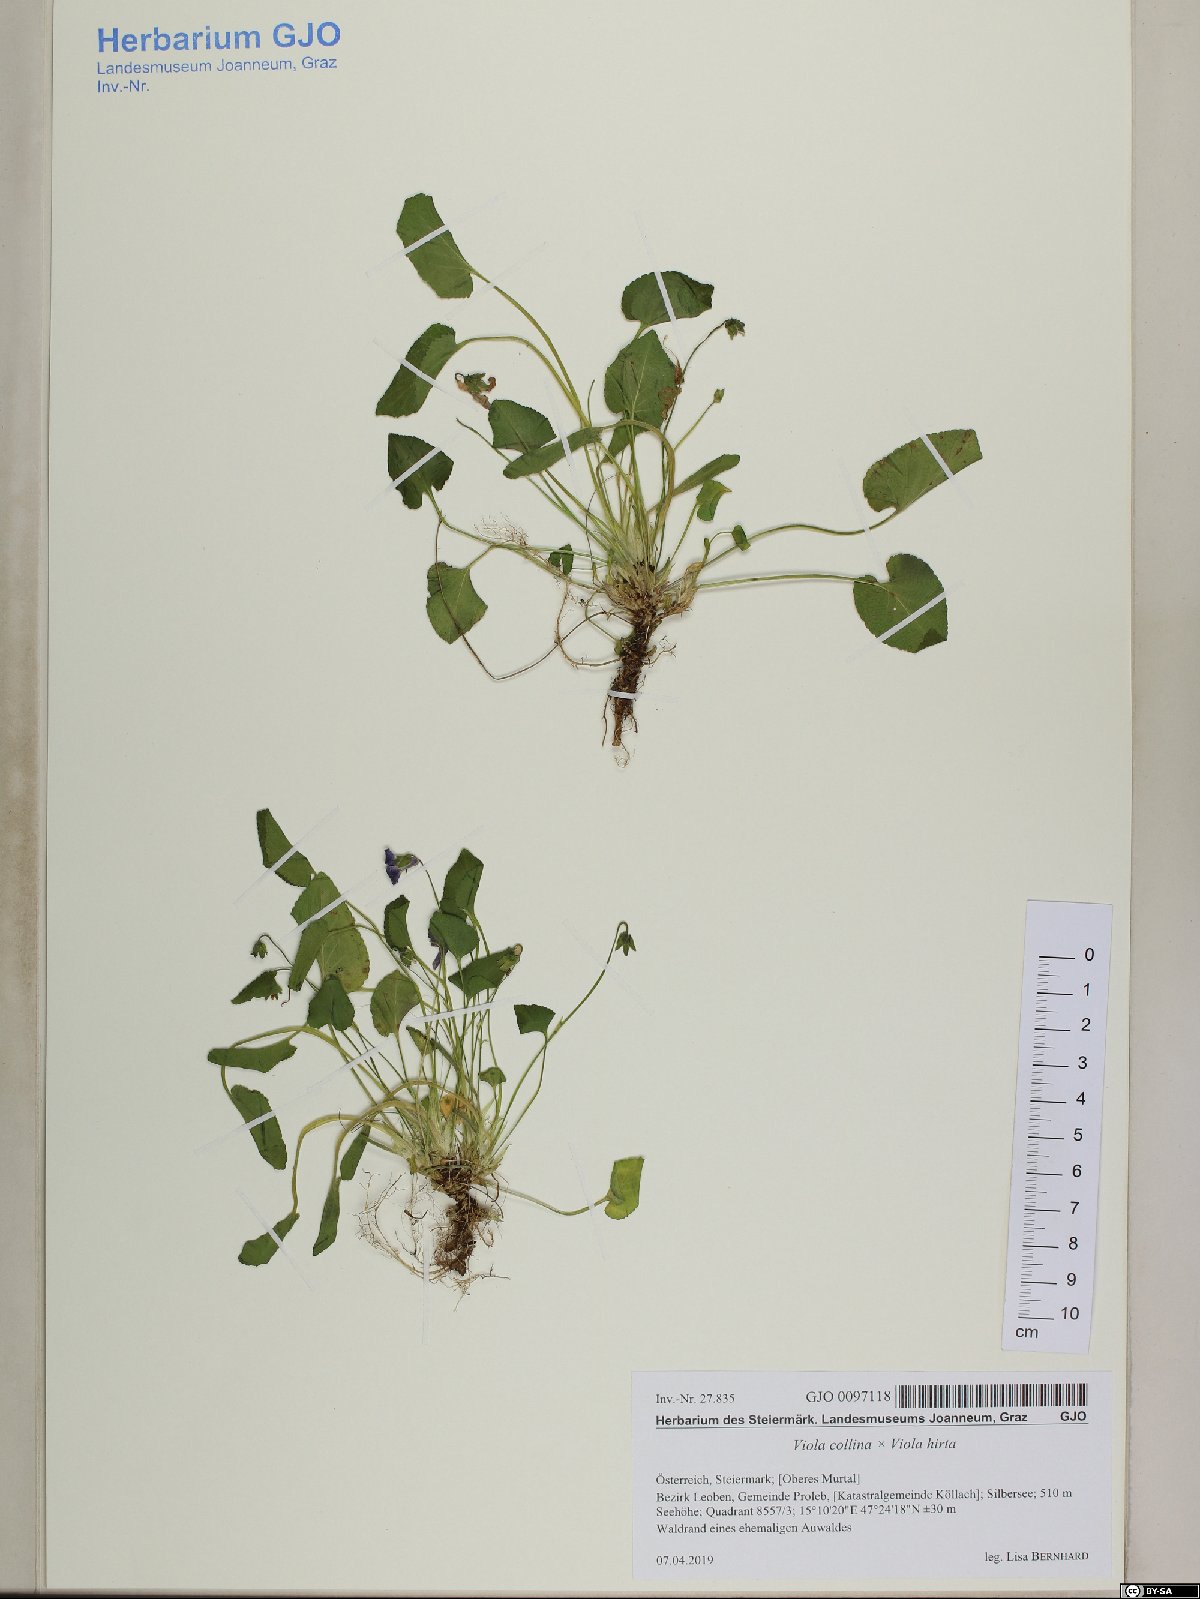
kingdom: Plantae
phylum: Tracheophyta
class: Magnoliopsida
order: Malpighiales
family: Violaceae
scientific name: Violaceae
